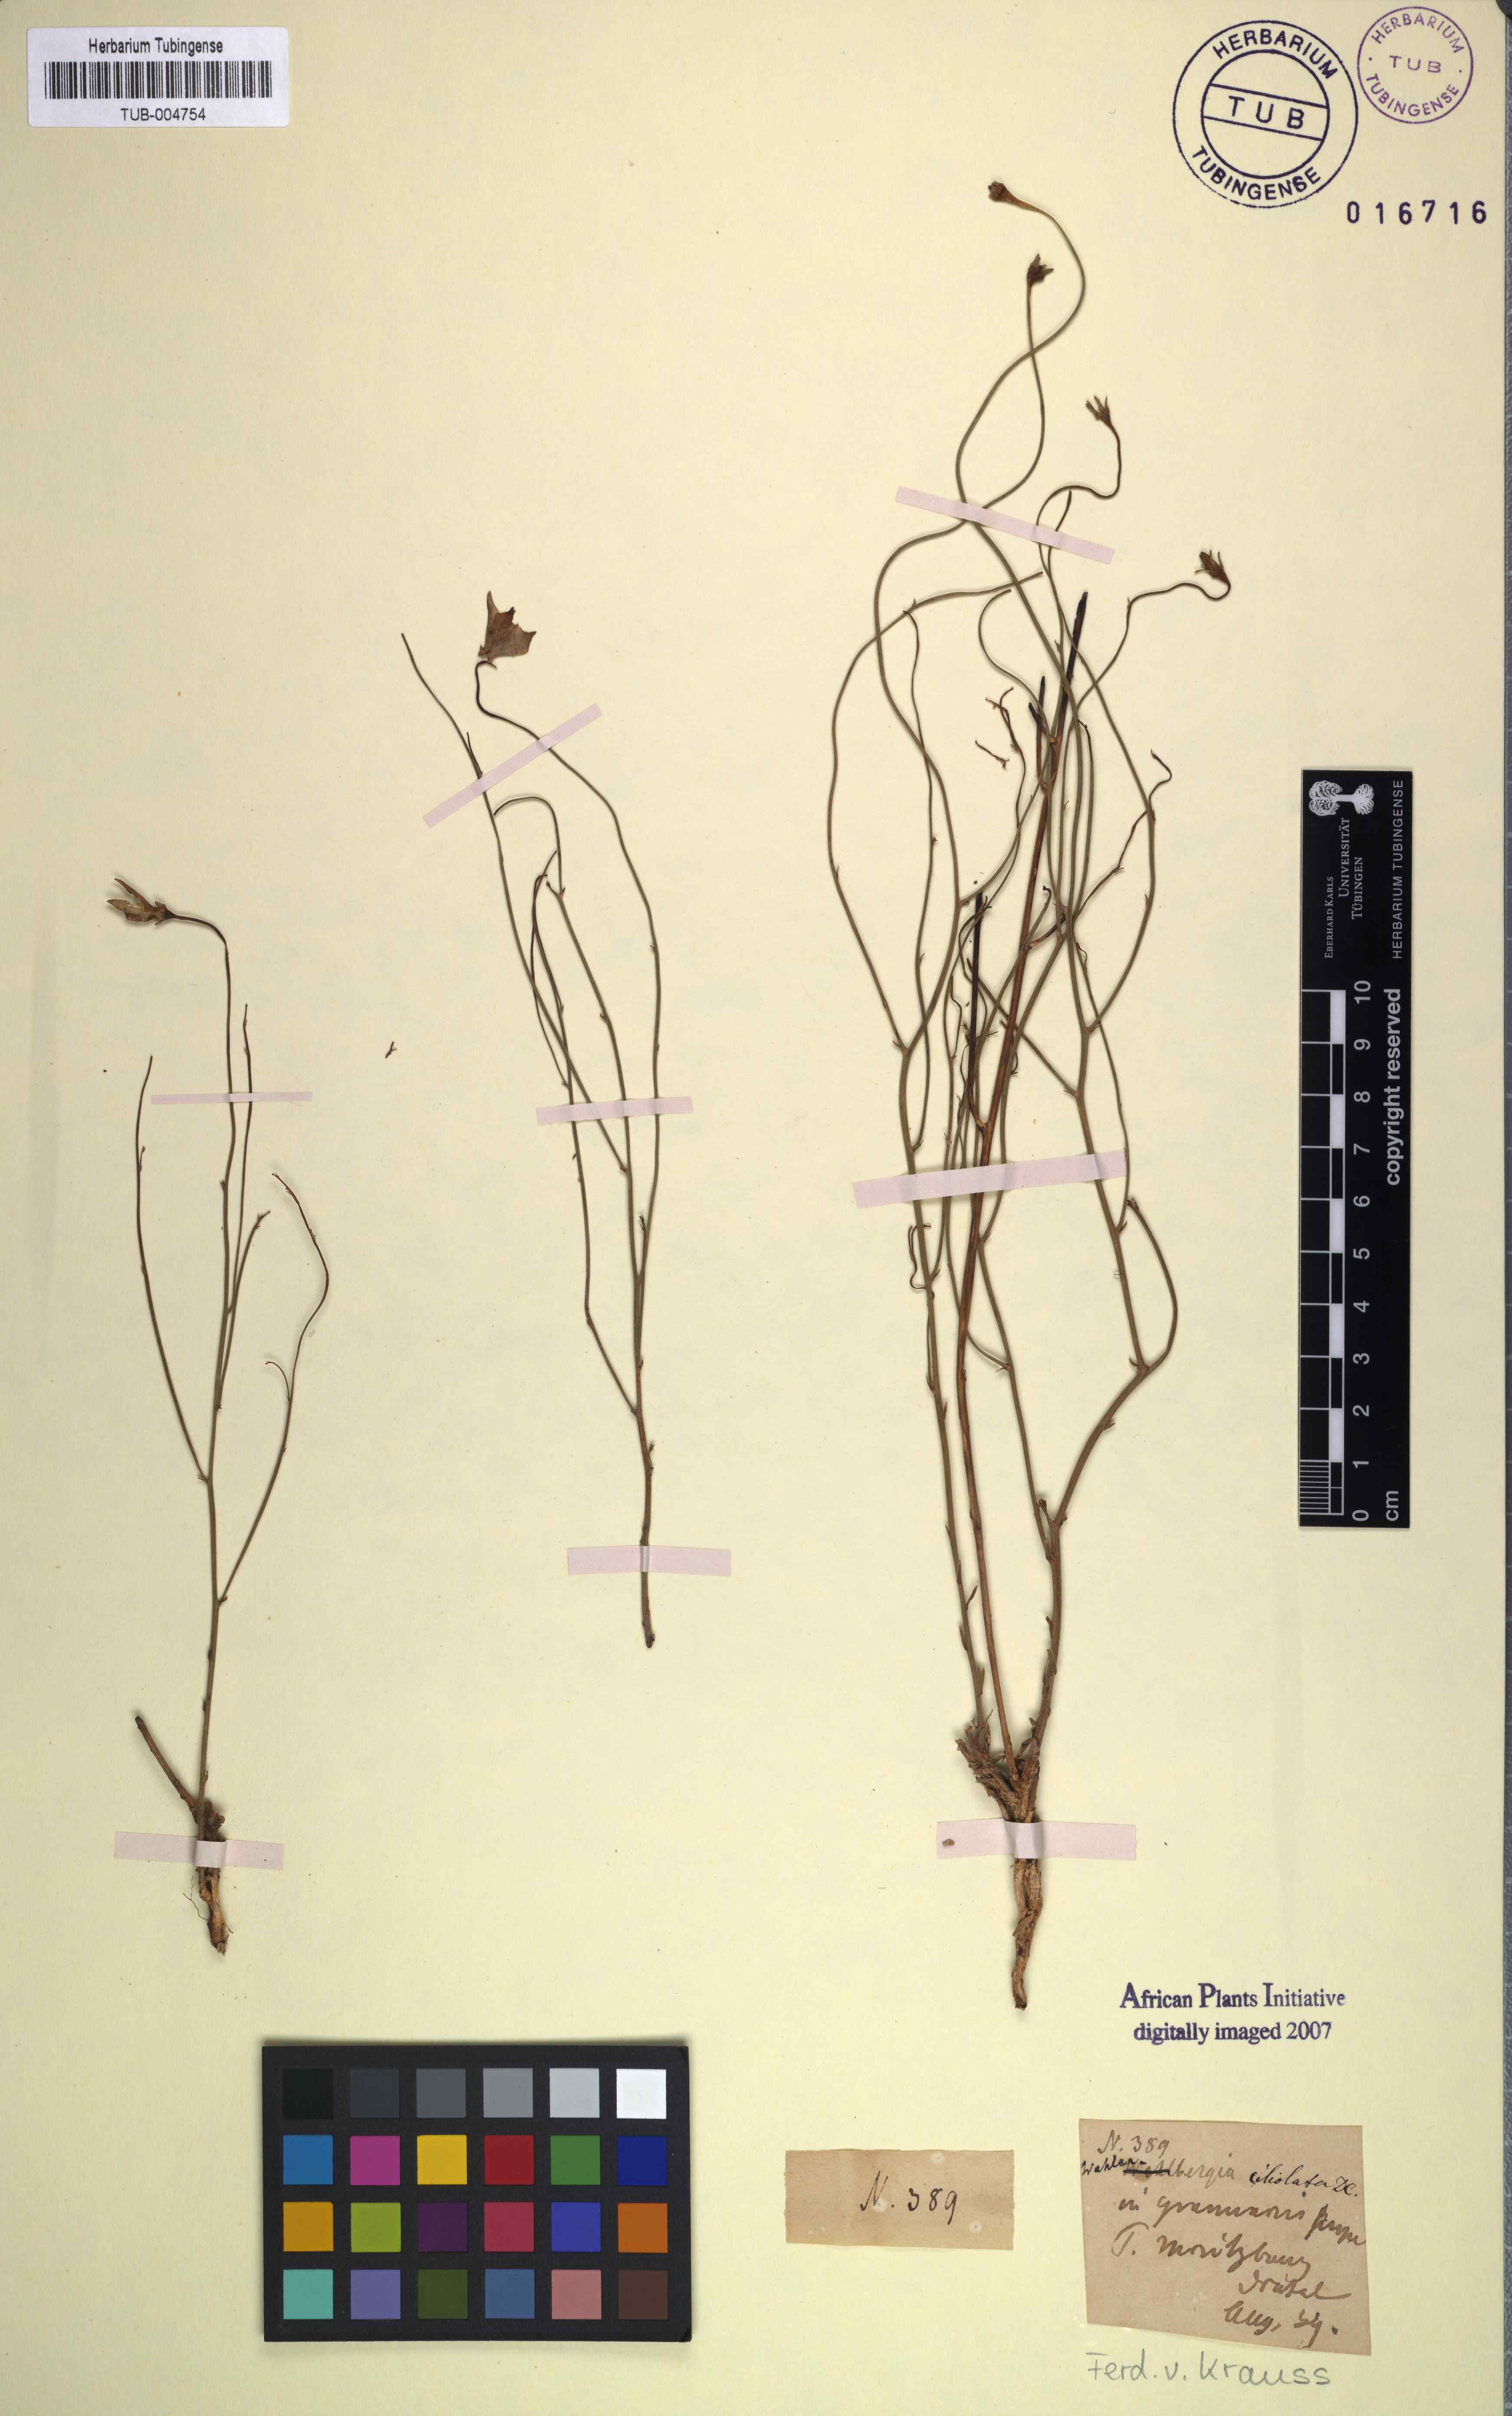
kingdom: Plantae
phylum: Tracheophyta
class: Magnoliopsida
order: Asterales
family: Campanulaceae
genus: Wahlenbergia
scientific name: Wahlenbergia cernua
